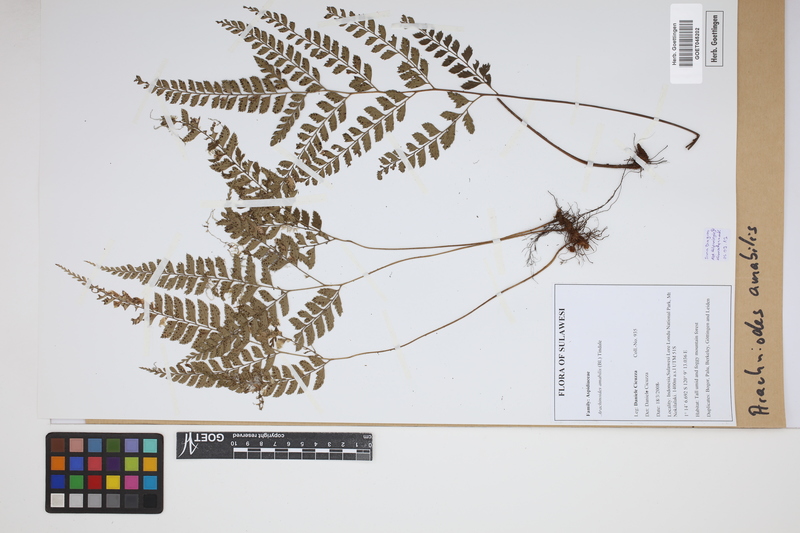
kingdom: Plantae
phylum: Tracheophyta
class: Polypodiopsida
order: Polypodiales
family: Dryopteridaceae
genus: Arachniodes
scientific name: Arachniodes amabilis
